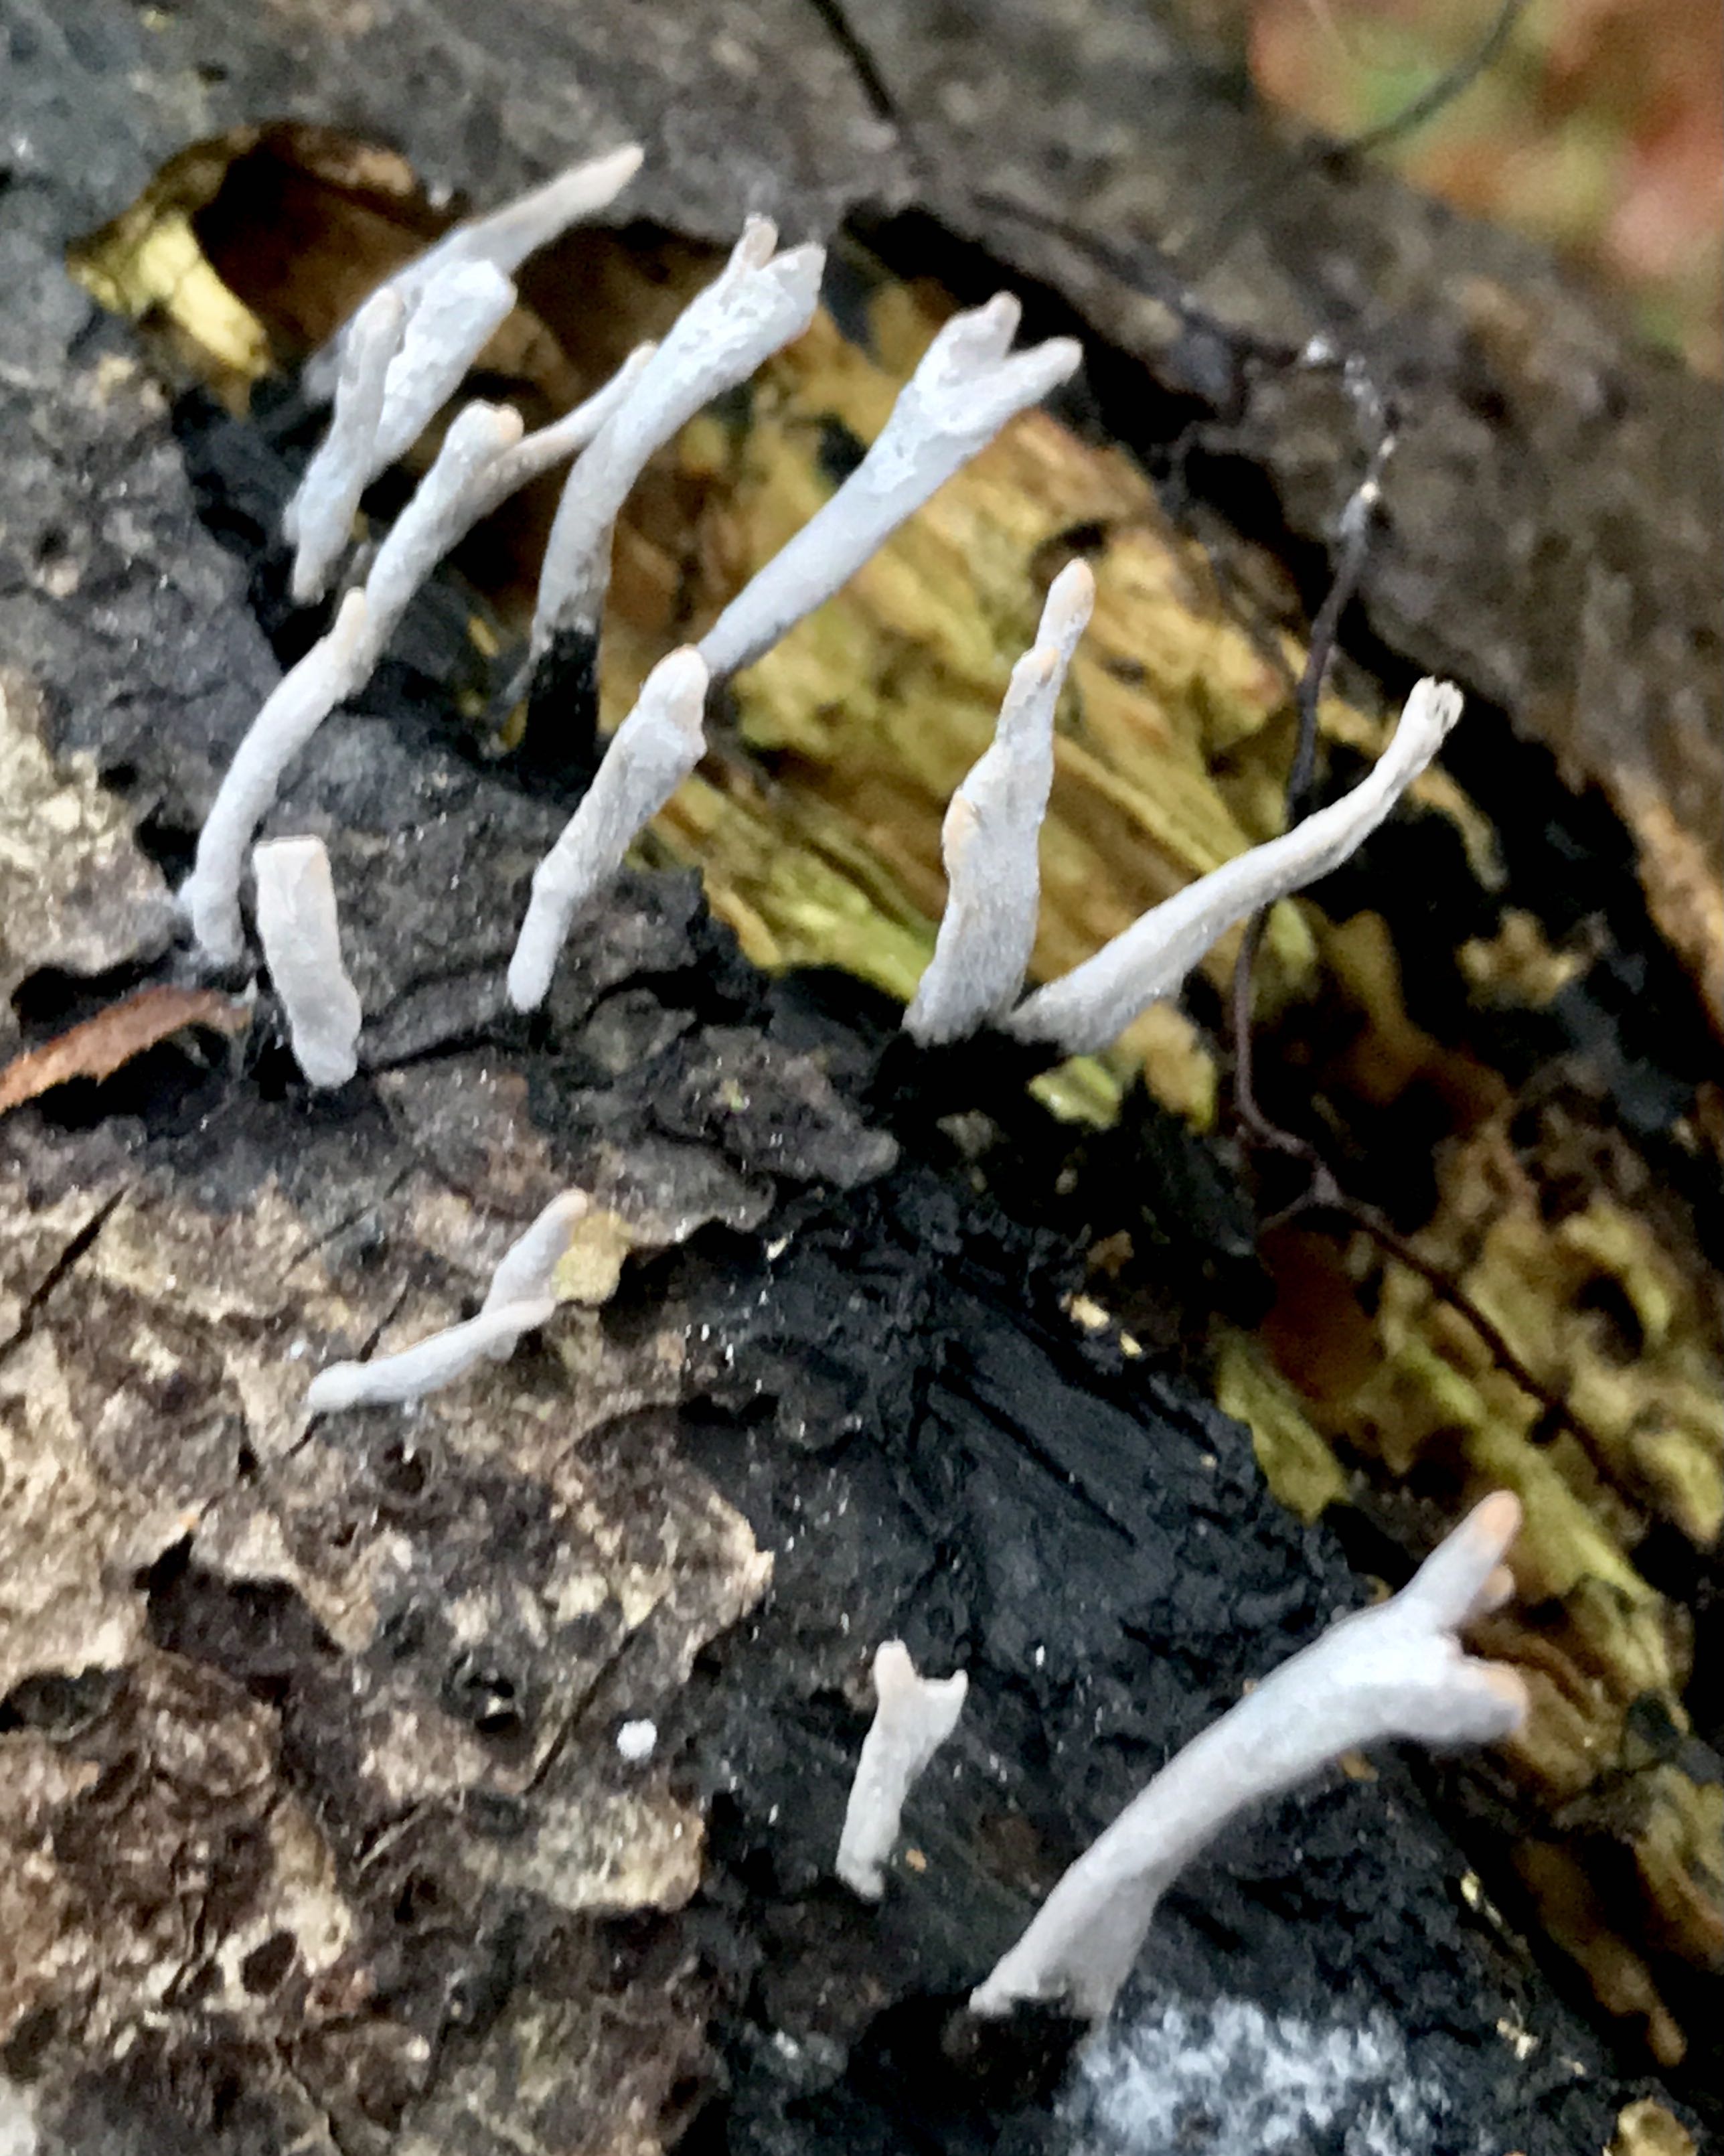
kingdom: Fungi
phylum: Ascomycota
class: Sordariomycetes
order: Xylariales
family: Xylariaceae
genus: Xylaria
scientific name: Xylaria hypoxylon
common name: grenet stødsvamp
